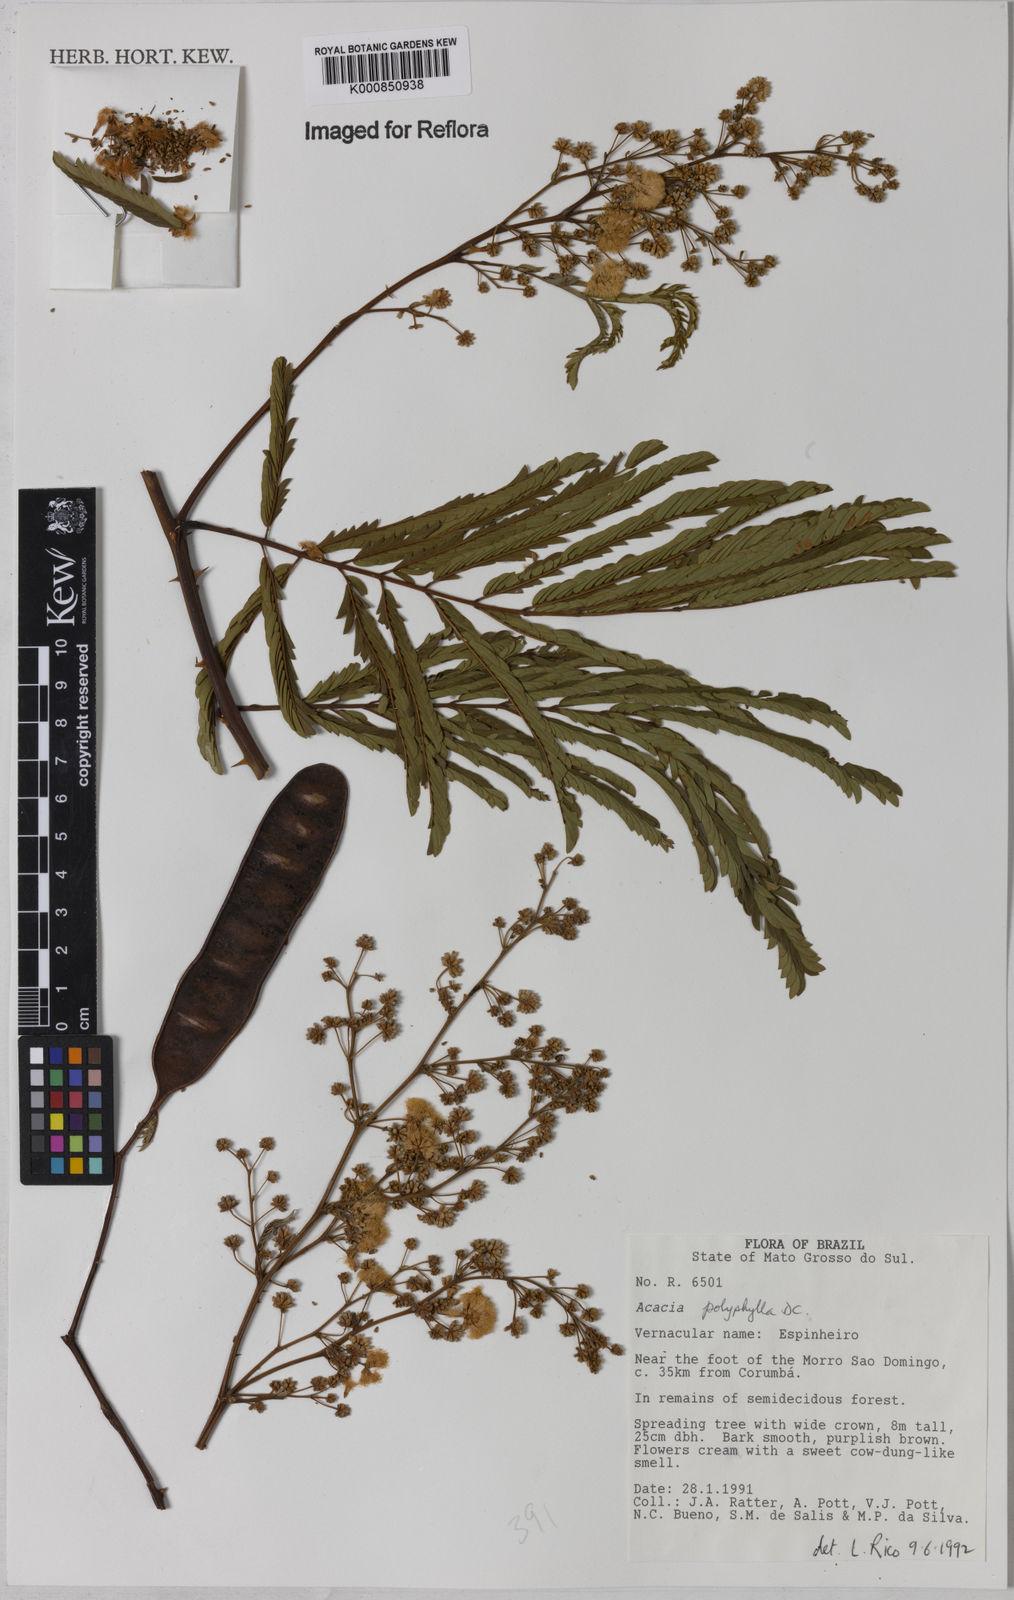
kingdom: Plantae
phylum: Tracheophyta
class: Magnoliopsida
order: Fabales
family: Fabaceae
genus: Senegalia
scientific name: Senegalia polyphylla
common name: White-tamarind
